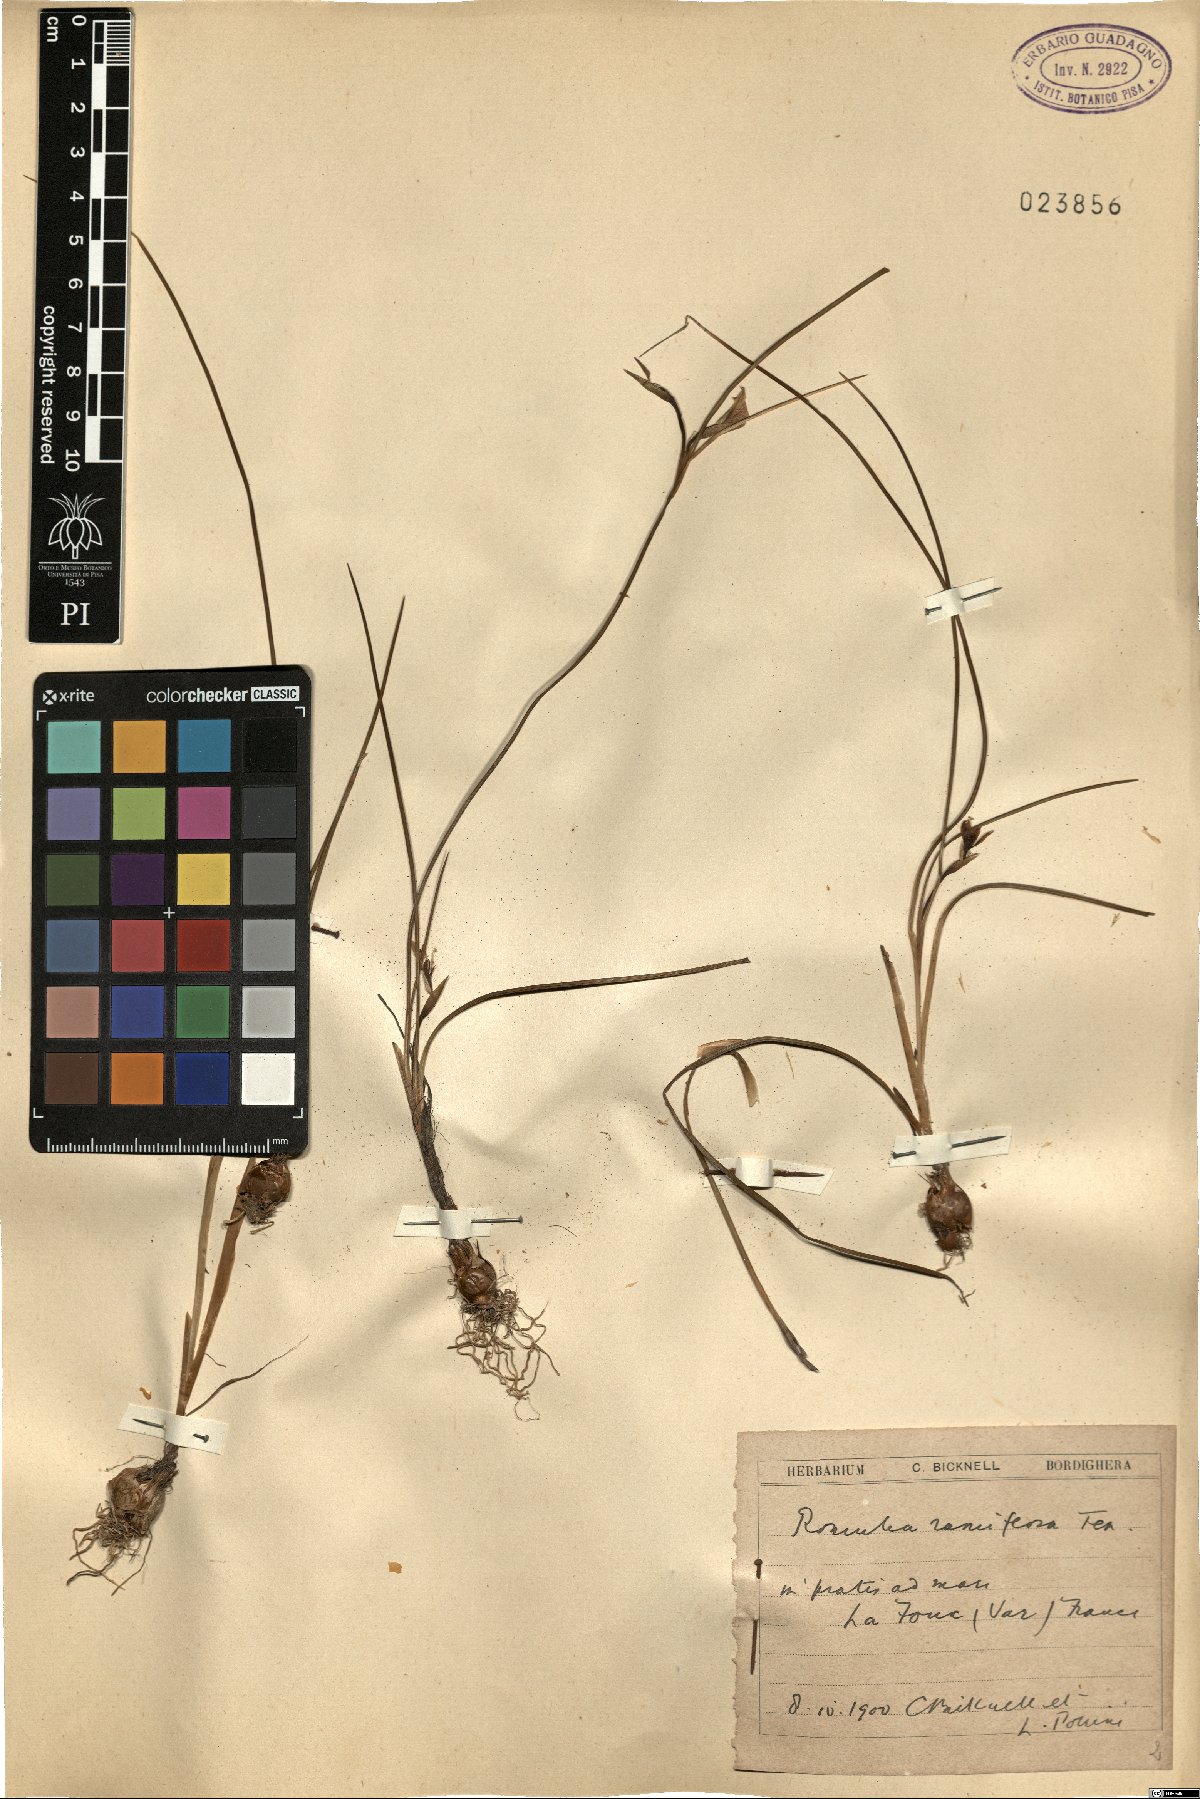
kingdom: Plantae
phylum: Tracheophyta
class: Liliopsida
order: Asparagales
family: Iridaceae
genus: Romulea
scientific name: Romulea ramiflora
